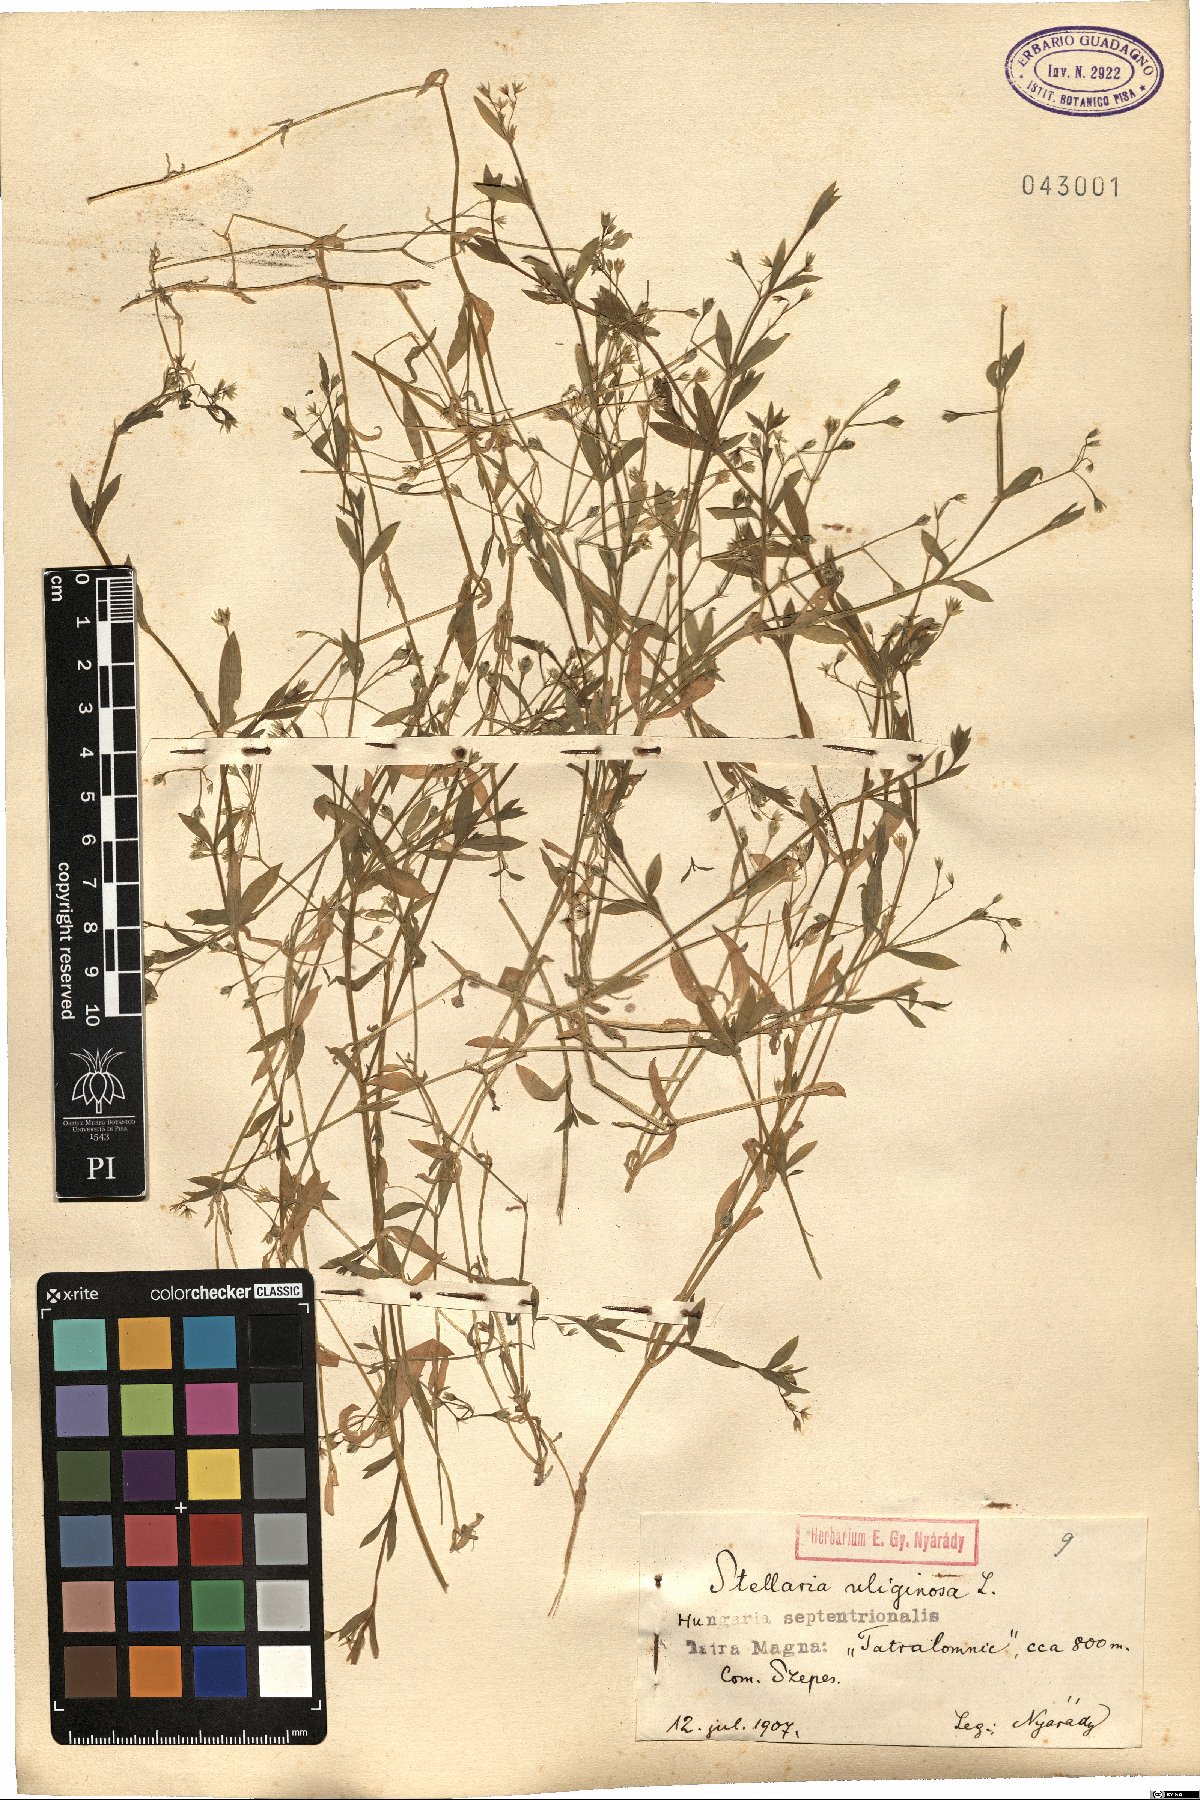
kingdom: Plantae
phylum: Tracheophyta
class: Magnoliopsida
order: Caryophyllales
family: Caryophyllaceae
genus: Stellaria
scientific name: Stellaria alsine
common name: Bog stitchwort
